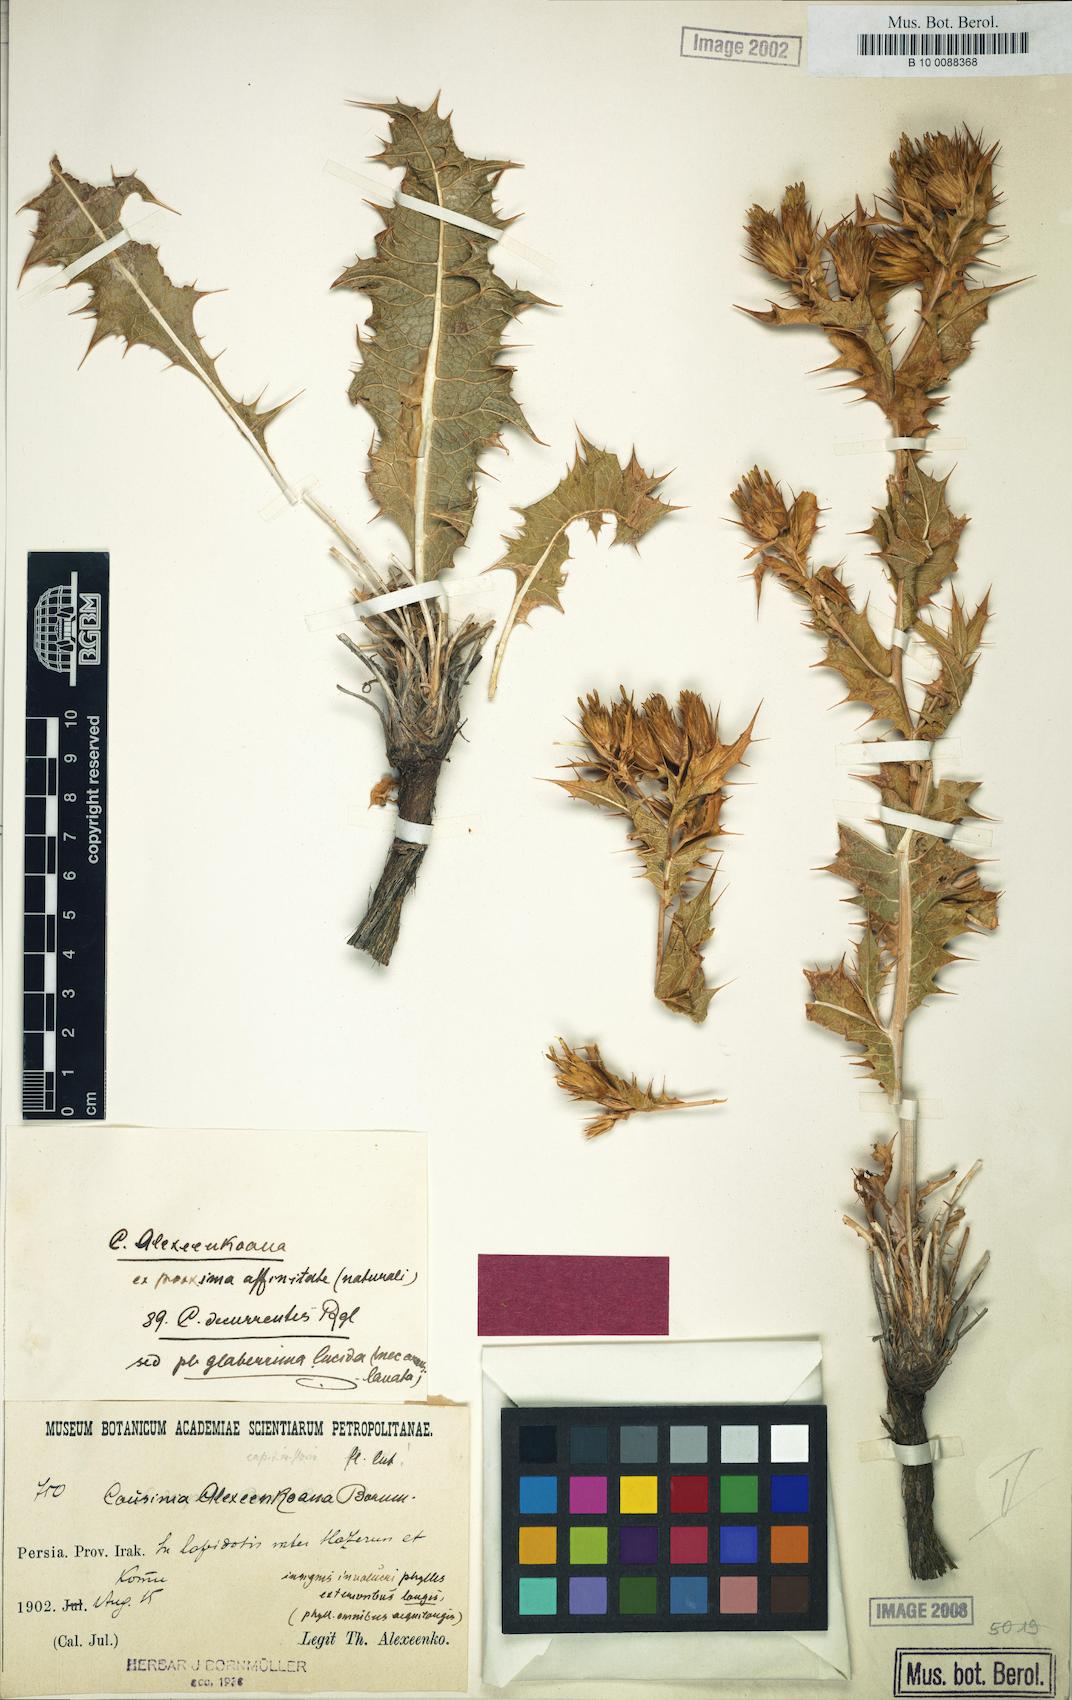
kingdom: Plantae
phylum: Tracheophyta
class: Magnoliopsida
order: Asterales
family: Asteraceae
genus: Cousinia
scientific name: Cousinia alexeenkoana
